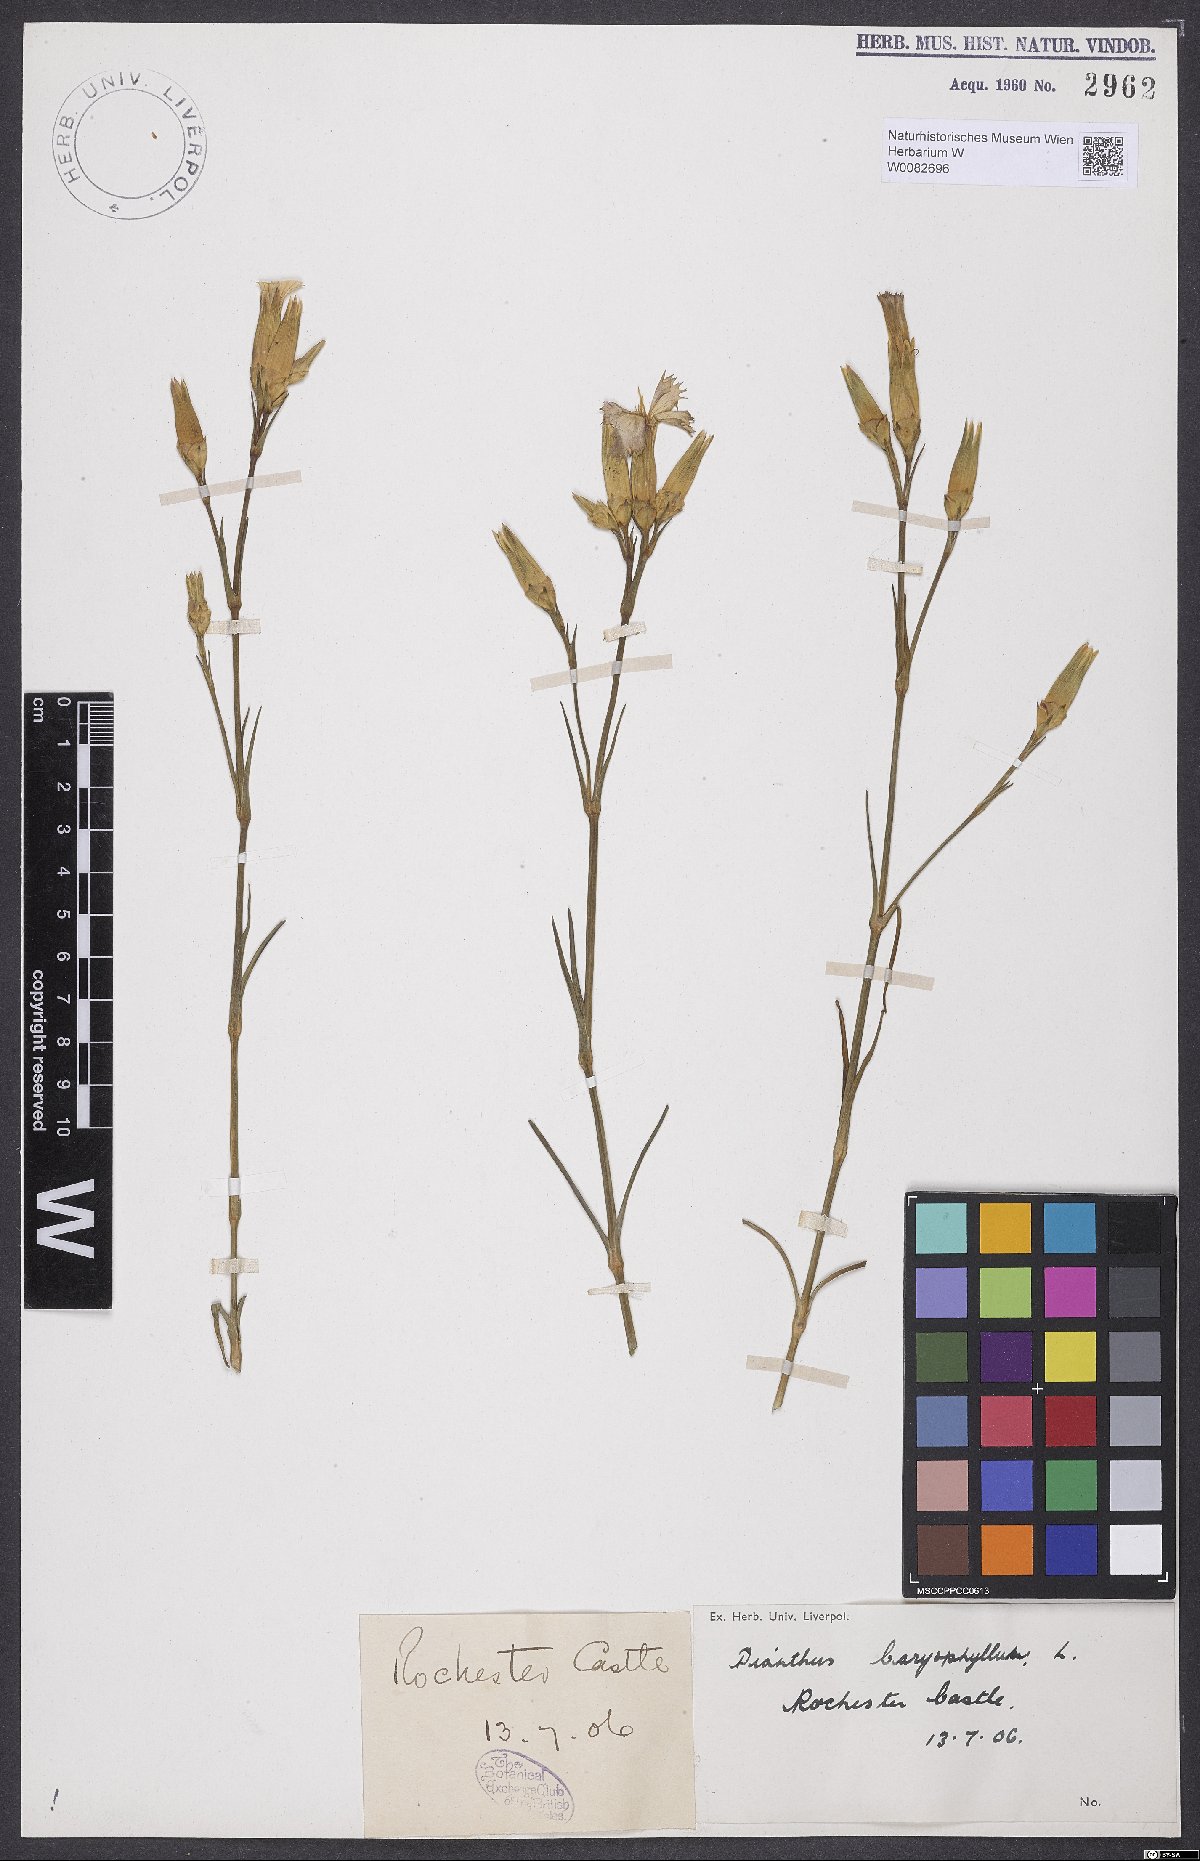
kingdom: Plantae
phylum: Tracheophyta
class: Magnoliopsida
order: Caryophyllales
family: Caryophyllaceae
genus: Dianthus
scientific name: Dianthus caryophyllus
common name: Clove pink
